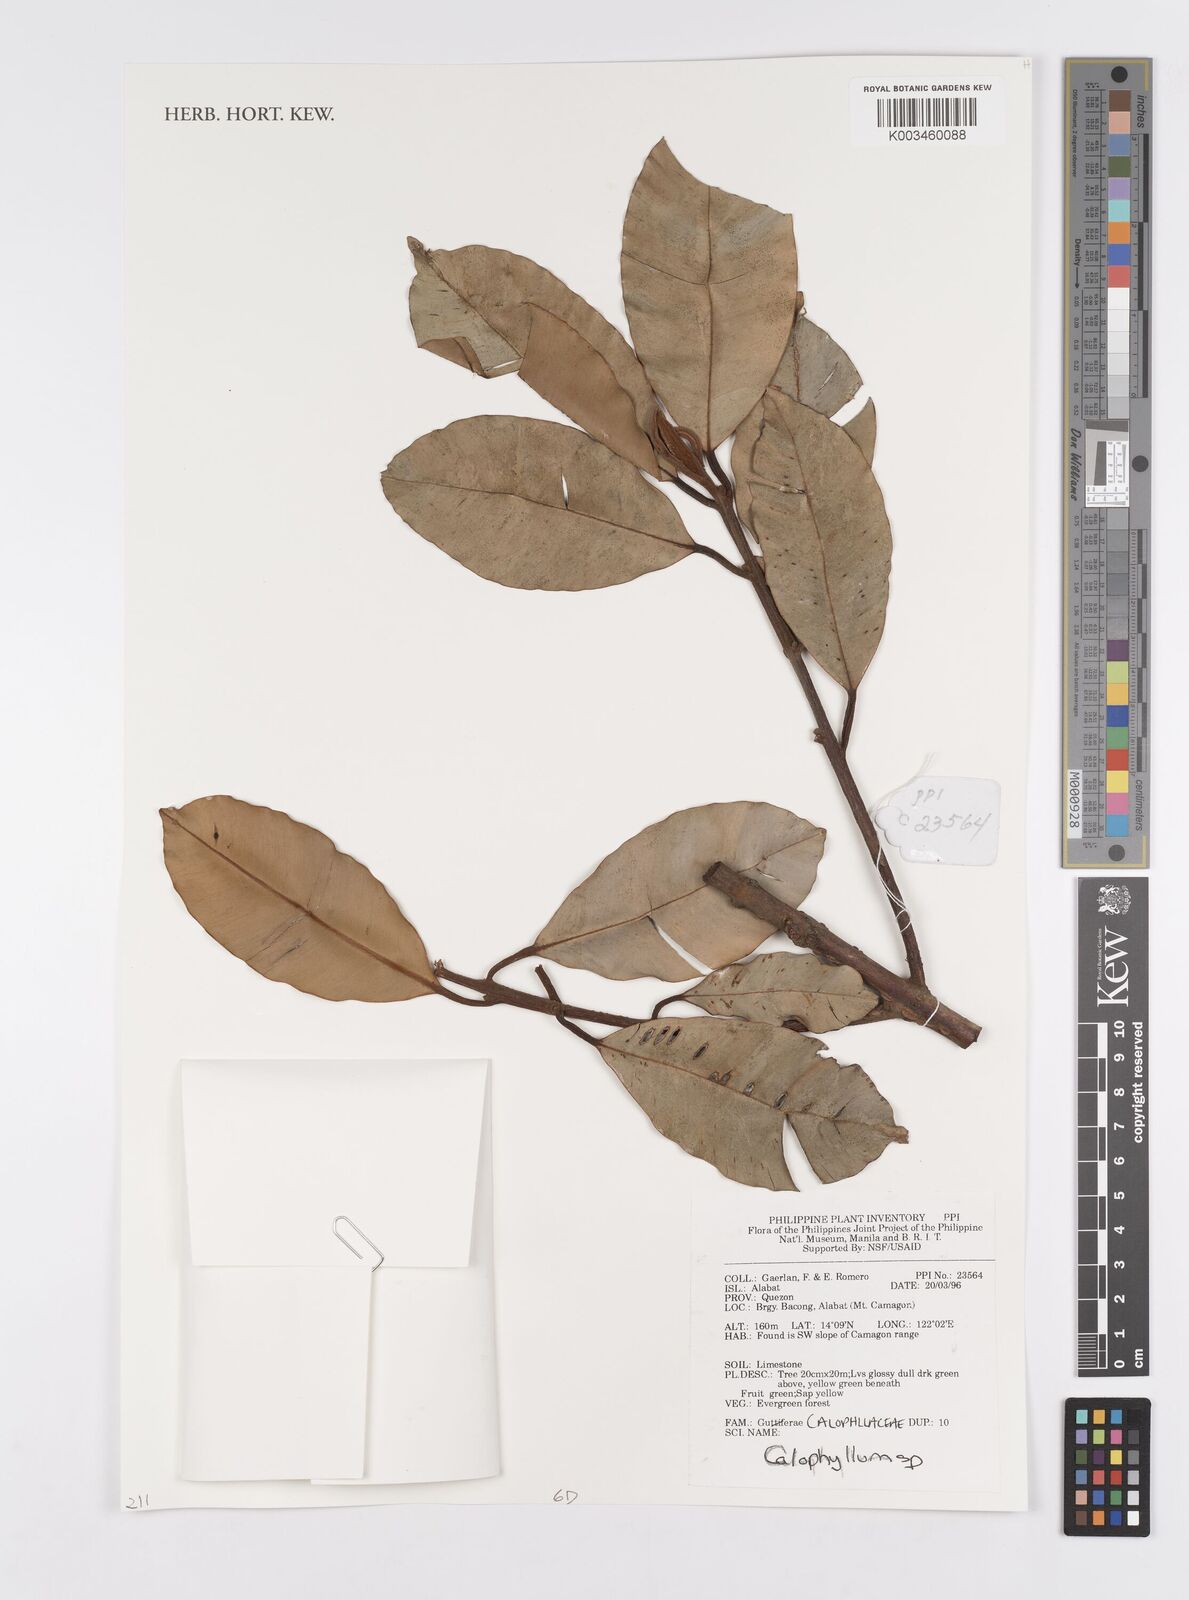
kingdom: Plantae
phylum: Tracheophyta
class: Magnoliopsida
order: Malpighiales
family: Calophyllaceae
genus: Calophyllum
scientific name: Calophyllum
